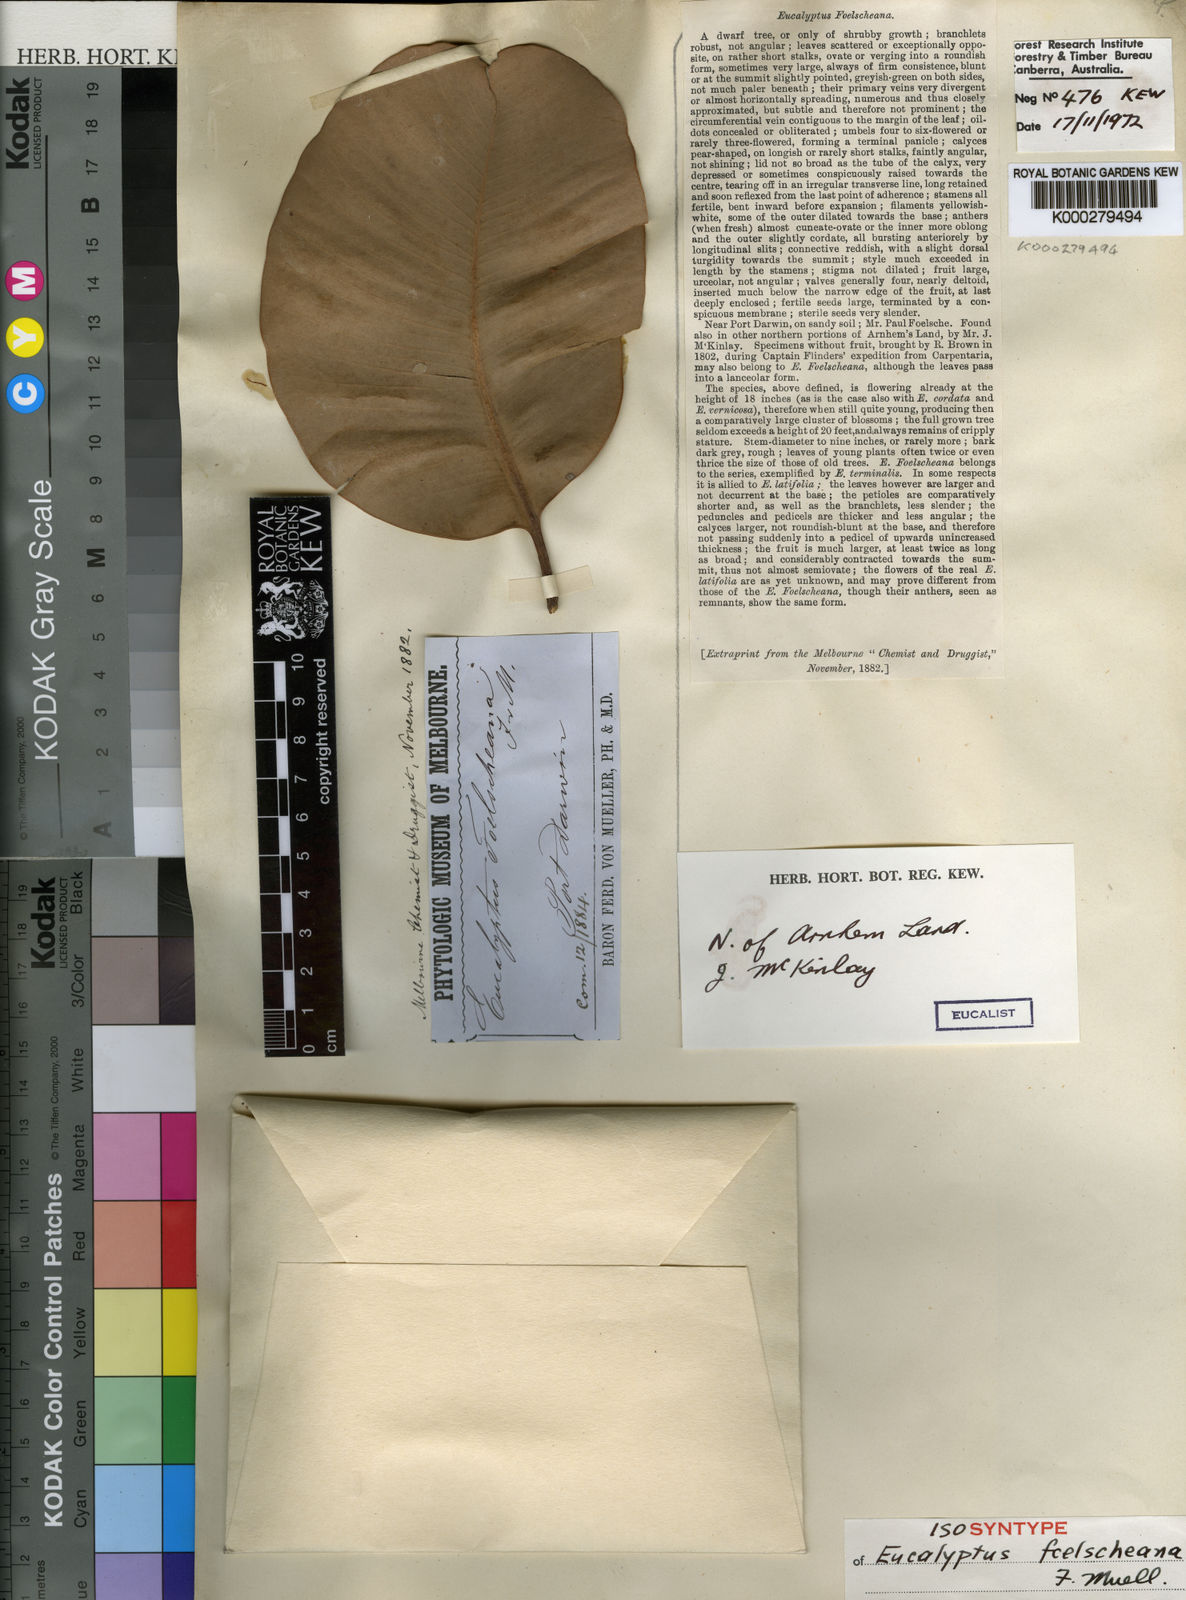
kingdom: Plantae
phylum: Tracheophyta
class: Magnoliopsida
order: Myrtales
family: Myrtaceae
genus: Corymbia
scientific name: Corymbia foelscheana
